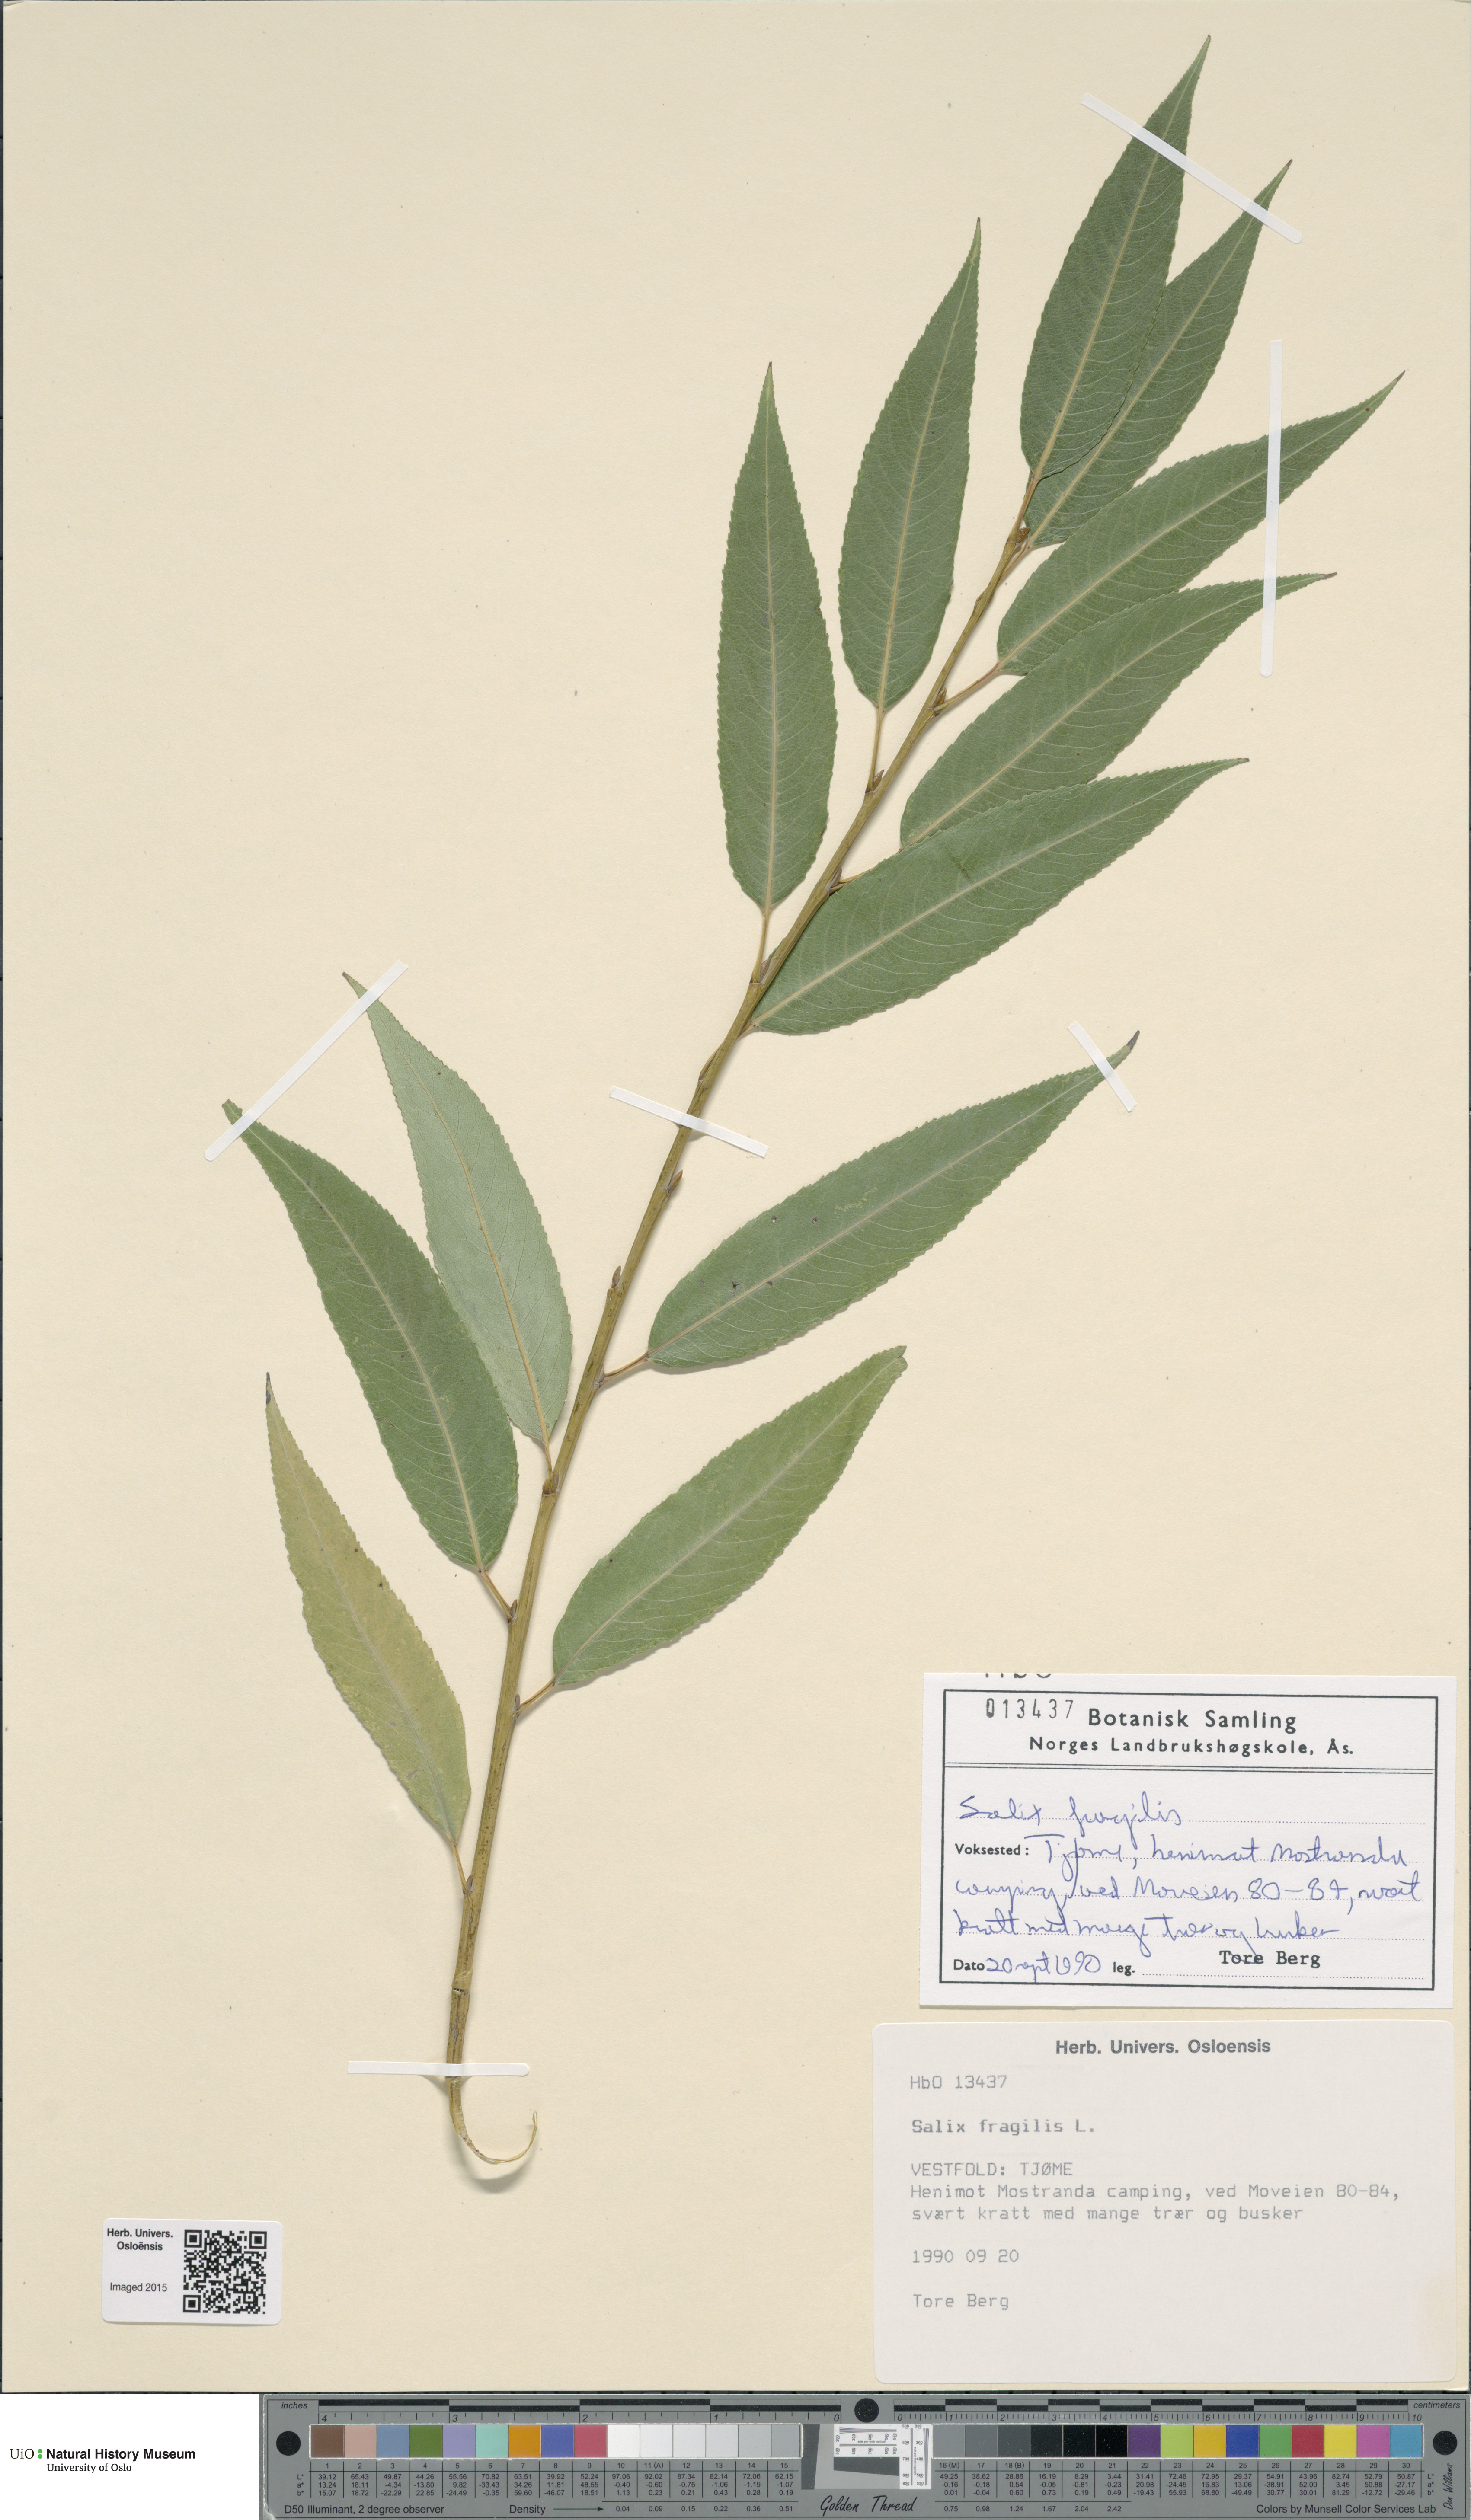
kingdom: Plantae
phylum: Tracheophyta
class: Magnoliopsida
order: Malpighiales
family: Salicaceae
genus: Salix
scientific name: Salix alba
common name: White willow
